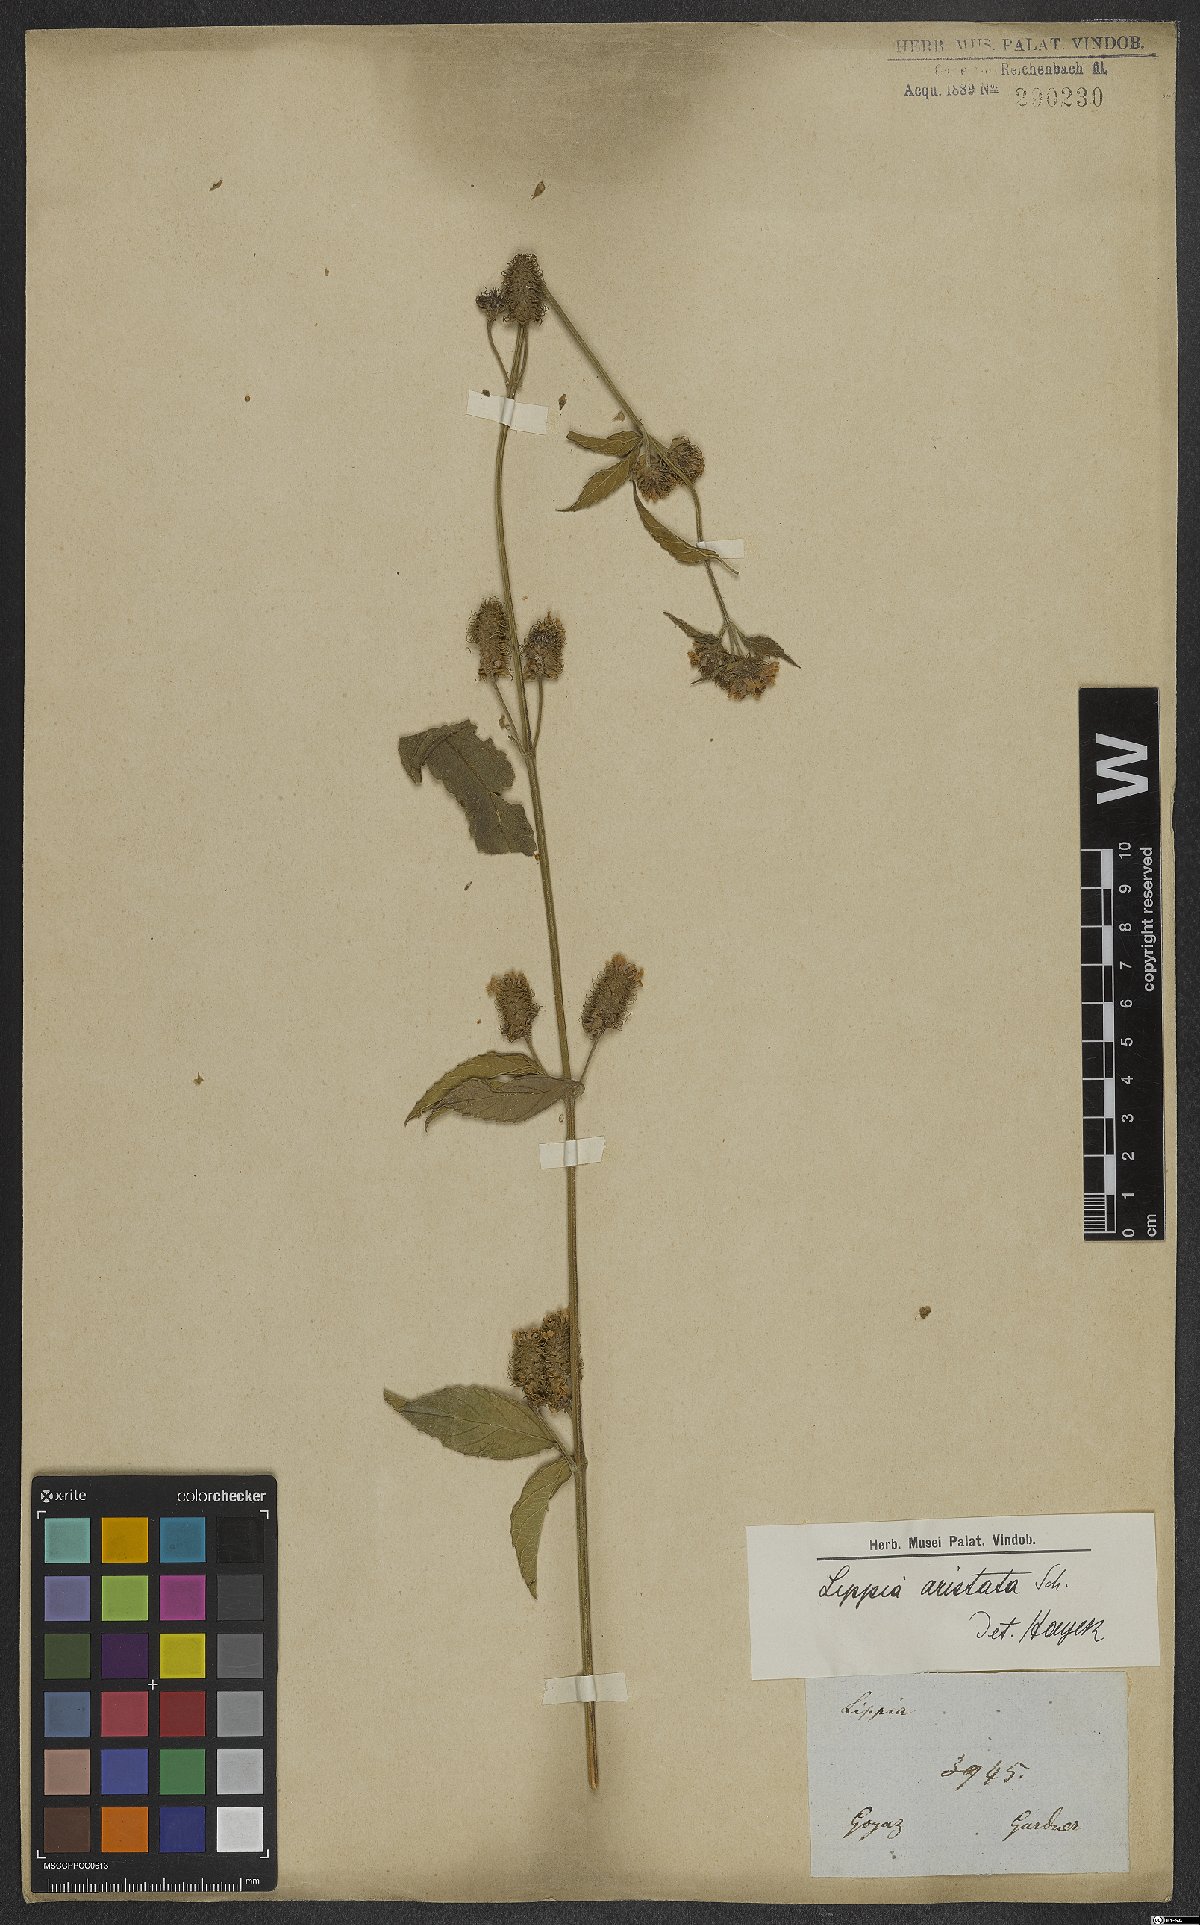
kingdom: Plantae
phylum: Tracheophyta
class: Magnoliopsida
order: Lamiales
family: Verbenaceae
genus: Lippia
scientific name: Lippia aristata
